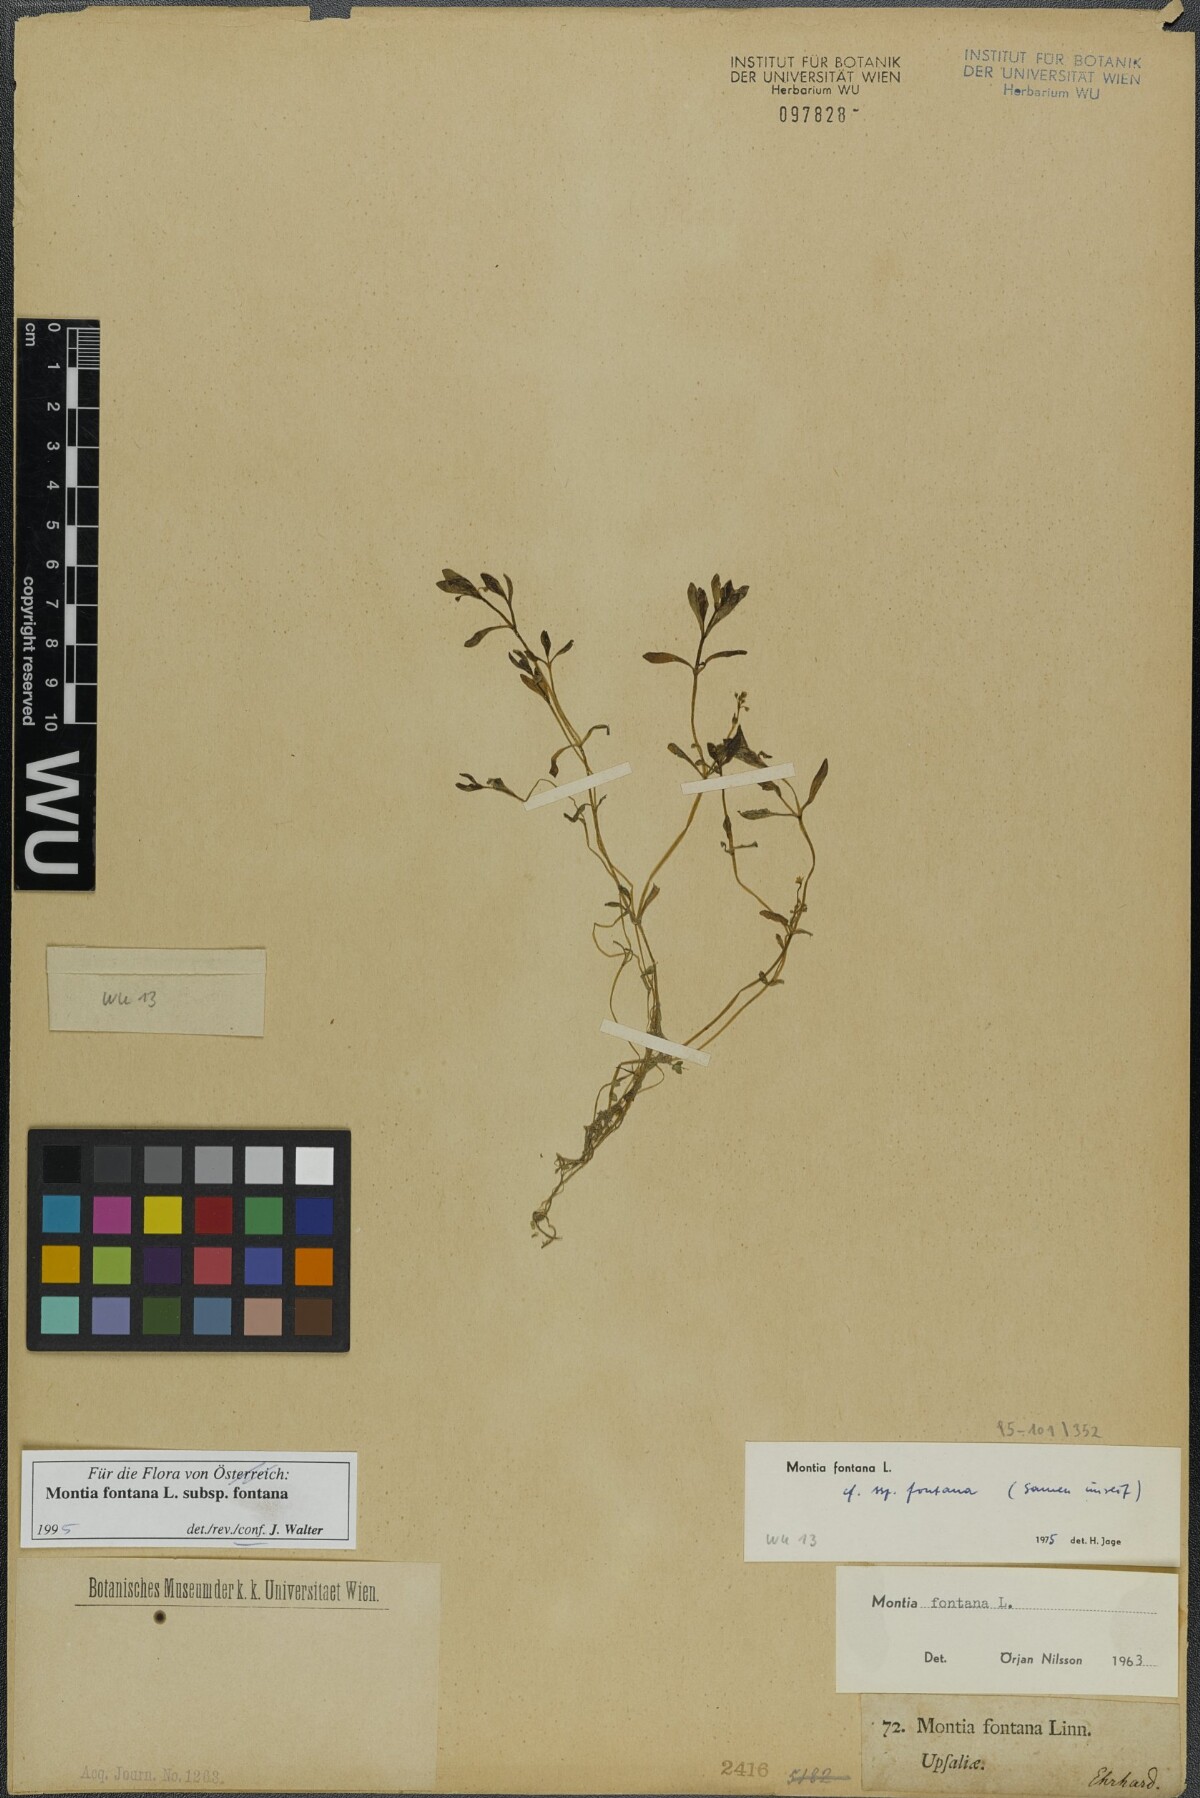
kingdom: Plantae
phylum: Tracheophyta
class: Magnoliopsida
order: Caryophyllales
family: Montiaceae
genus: Montia
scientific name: Montia fontana
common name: Blinks
